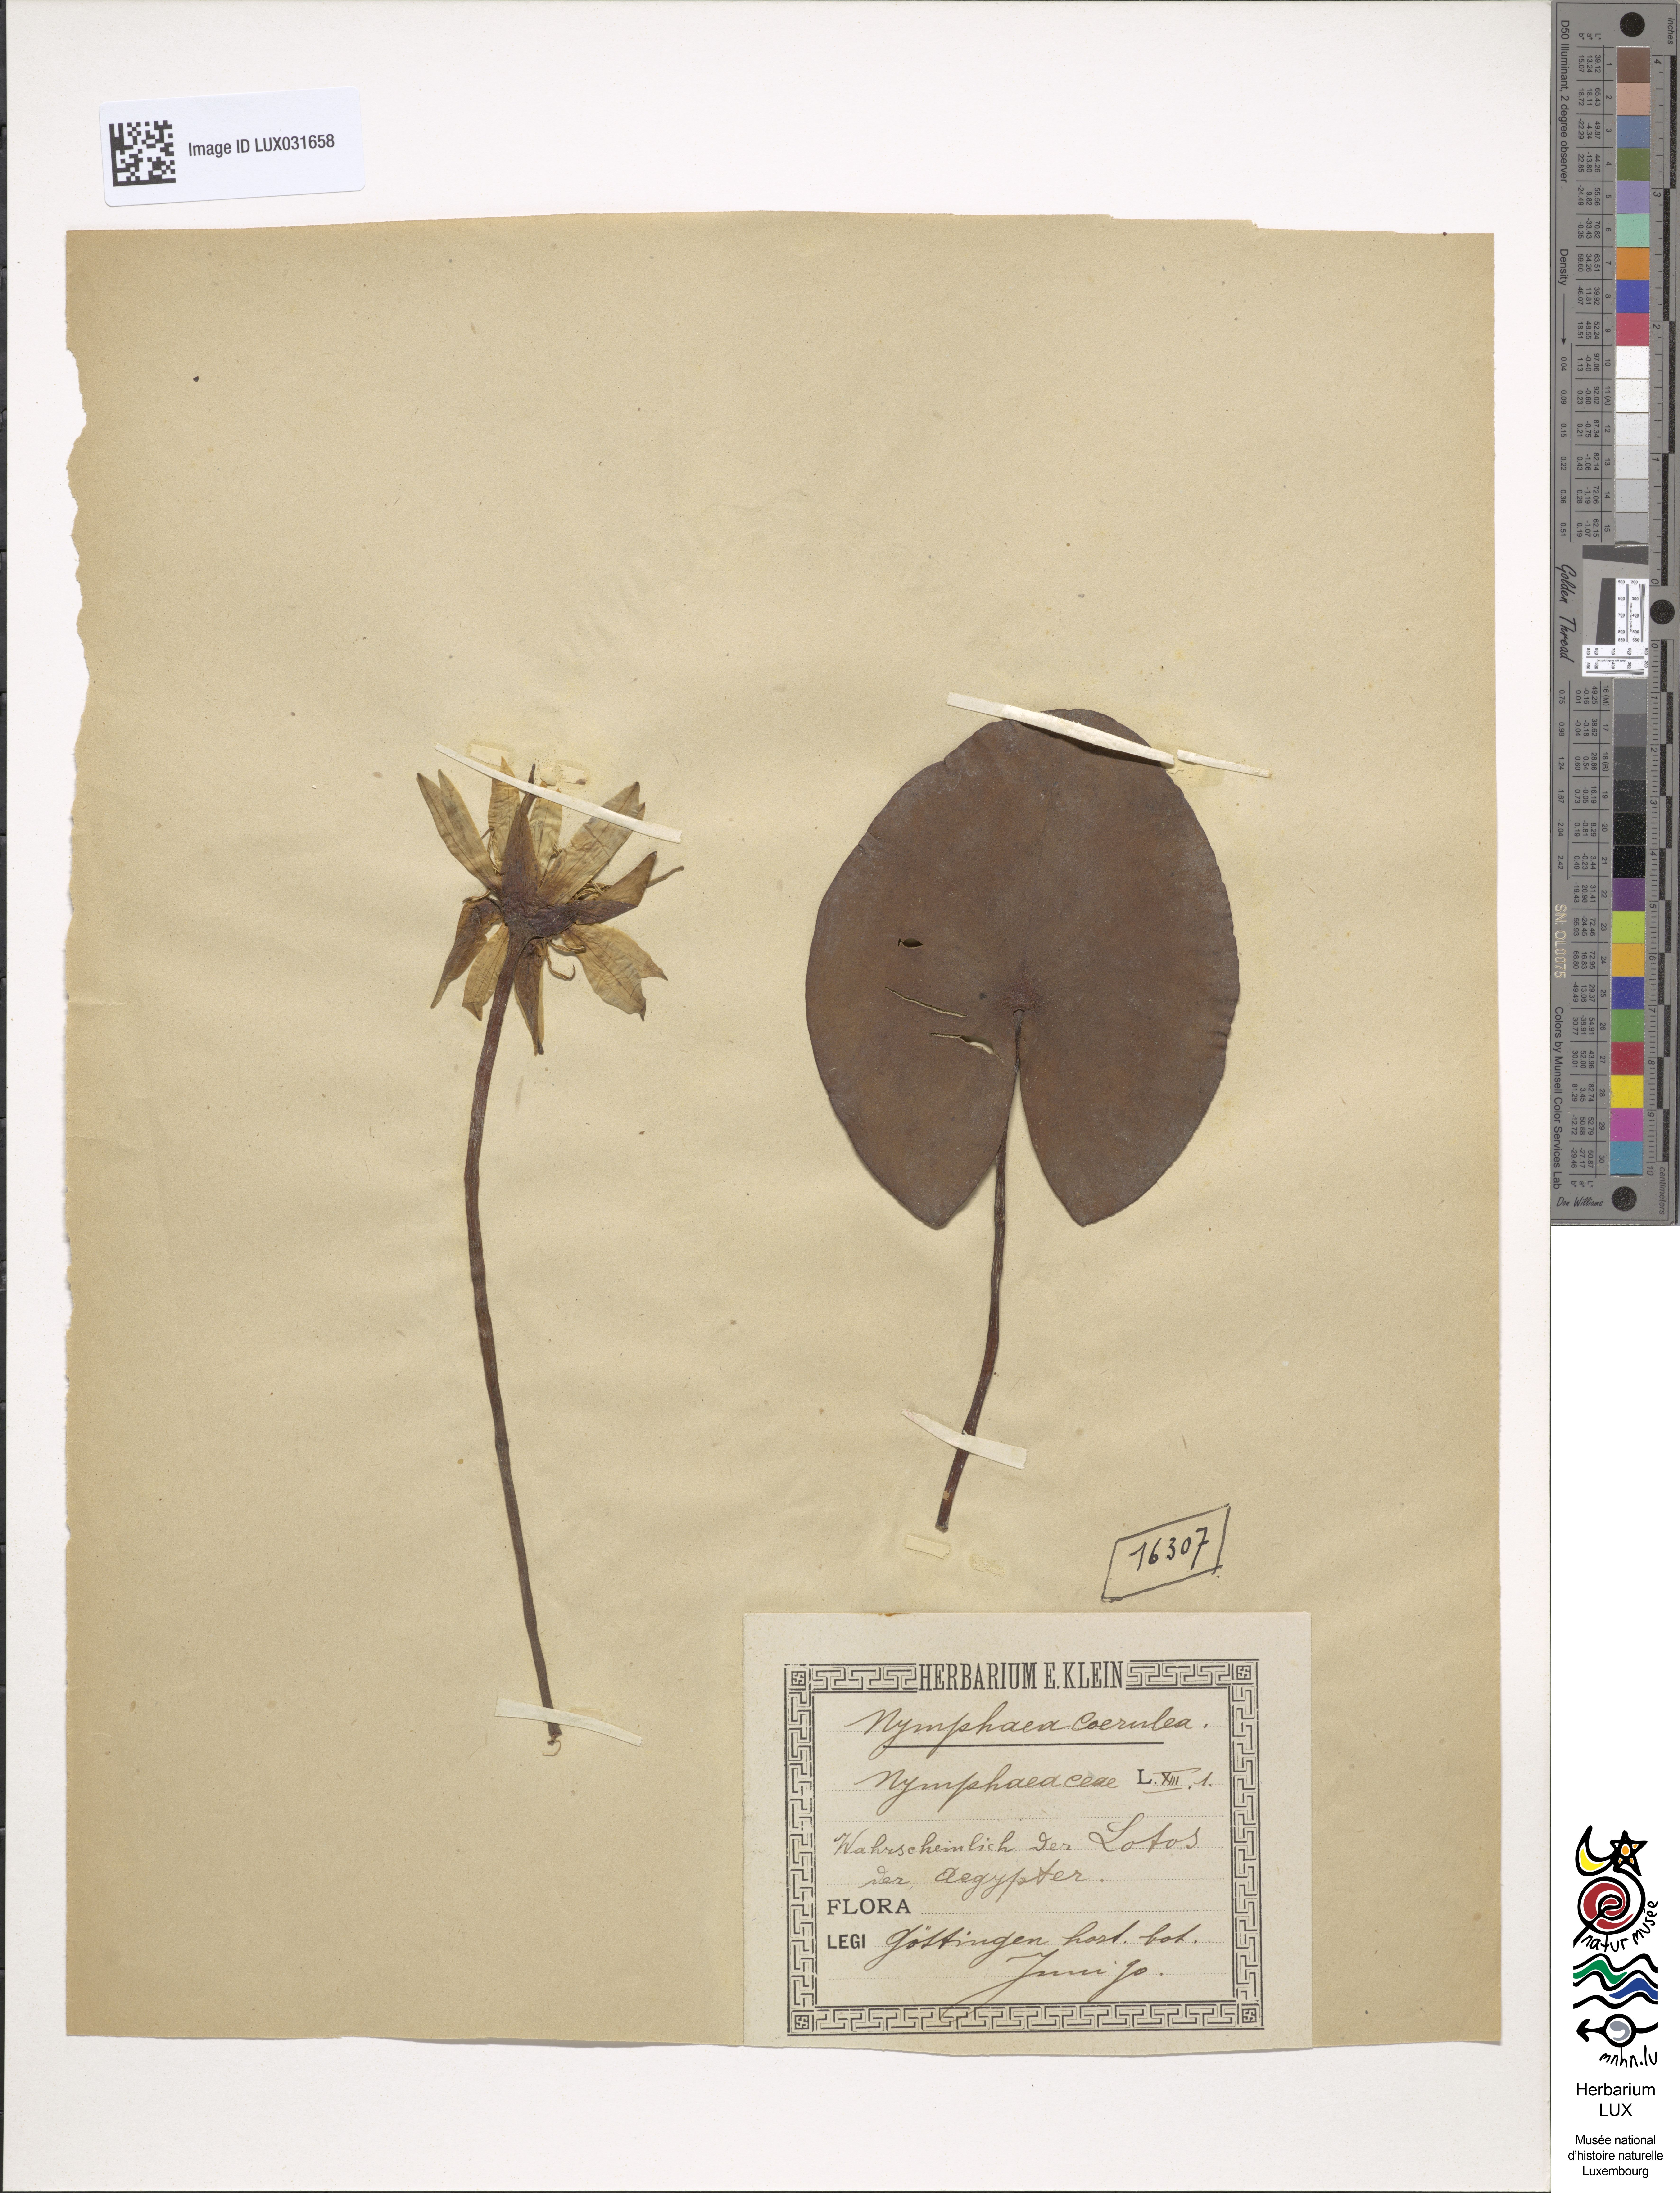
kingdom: Plantae
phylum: Tracheophyta
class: Magnoliopsida
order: Nymphaeales
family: Nymphaeaceae
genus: Nymphaea
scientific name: Nymphaea
